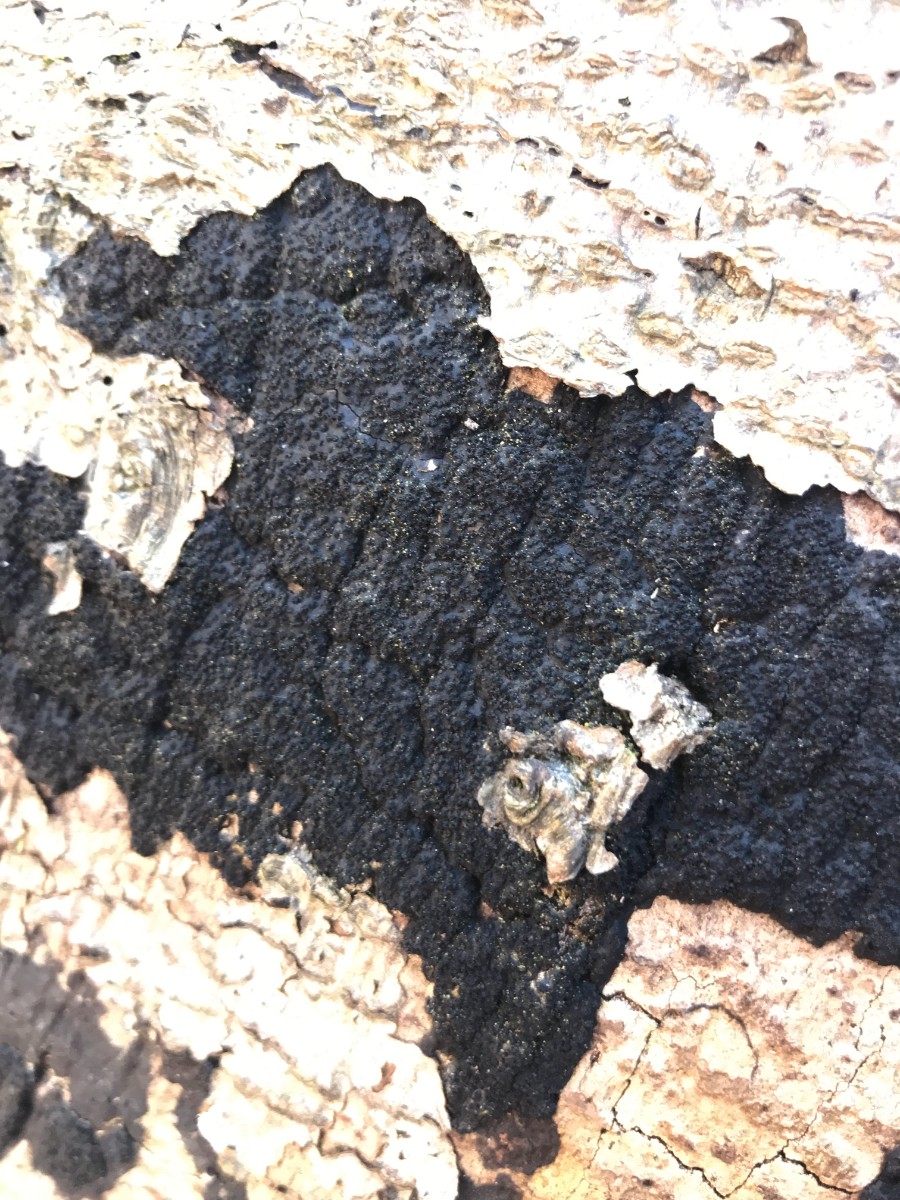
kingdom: Fungi
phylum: Ascomycota
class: Sordariomycetes
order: Xylariales
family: Diatrypaceae
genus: Eutypa
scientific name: Eutypa spinosa
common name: grov kulskorpe
